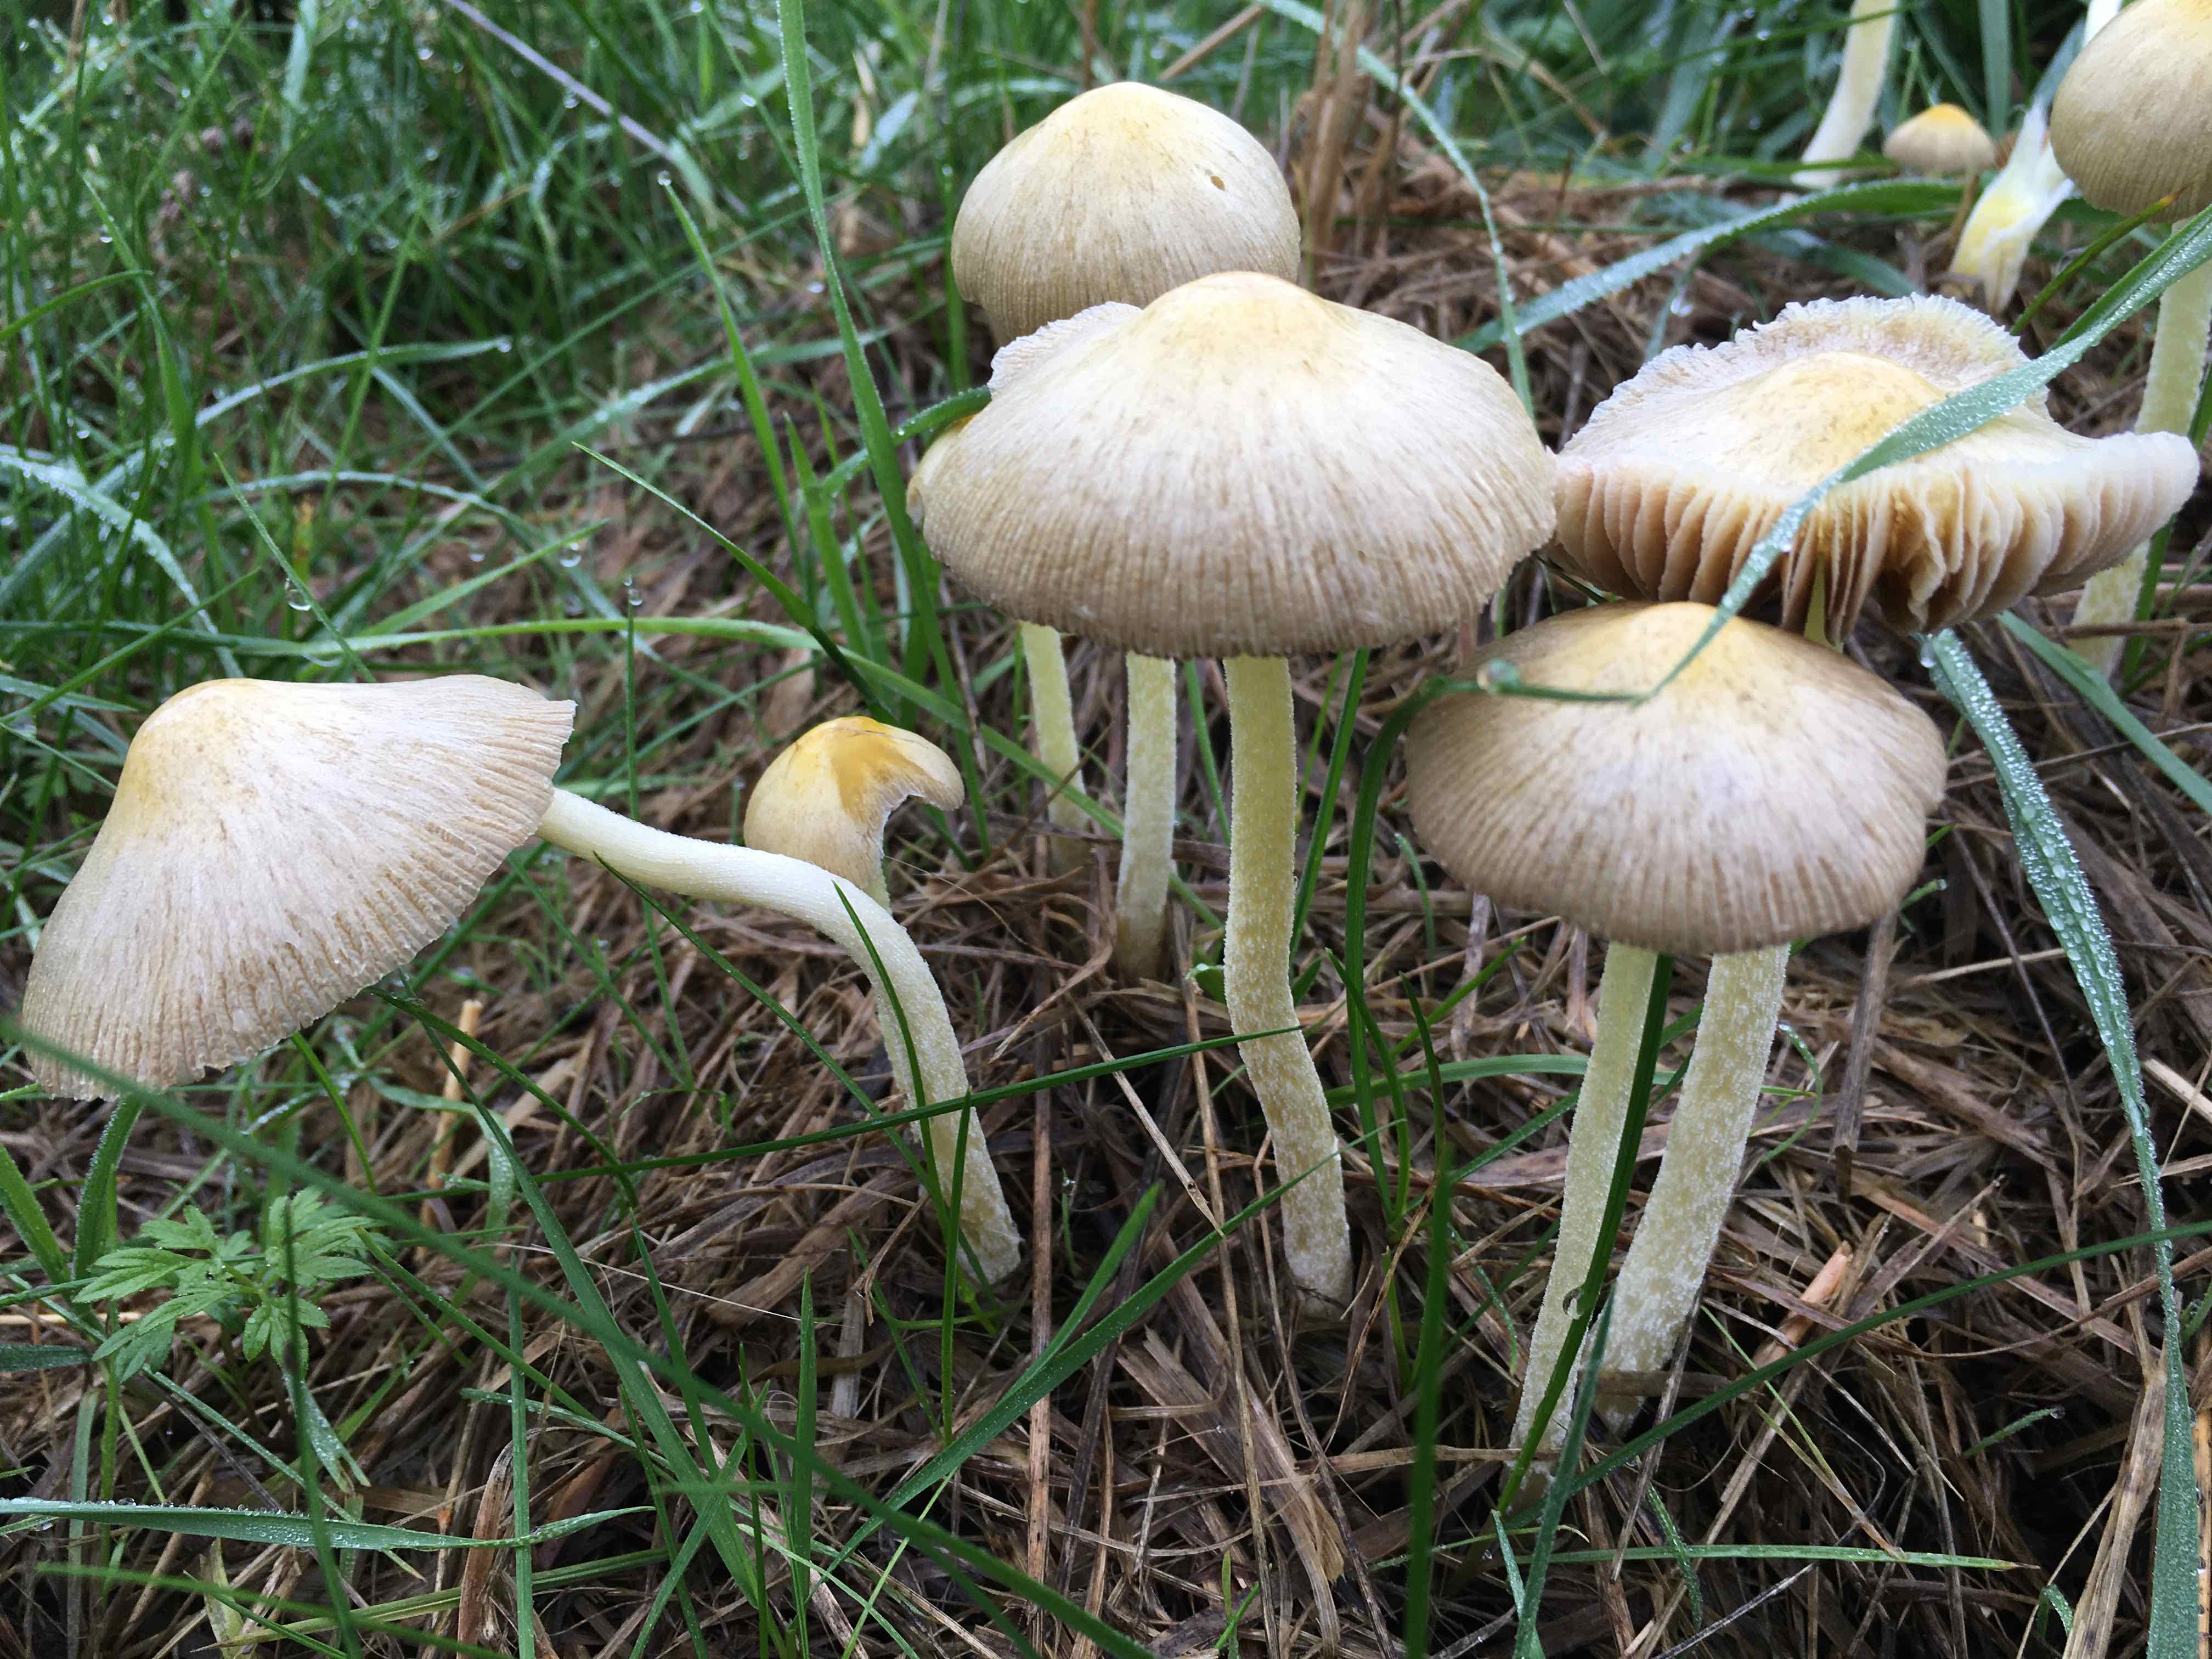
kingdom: Fungi
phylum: Basidiomycota
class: Agaricomycetes
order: Agaricales
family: Bolbitiaceae
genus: Bolbitius
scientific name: Bolbitius titubans
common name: almindelig gulhat
